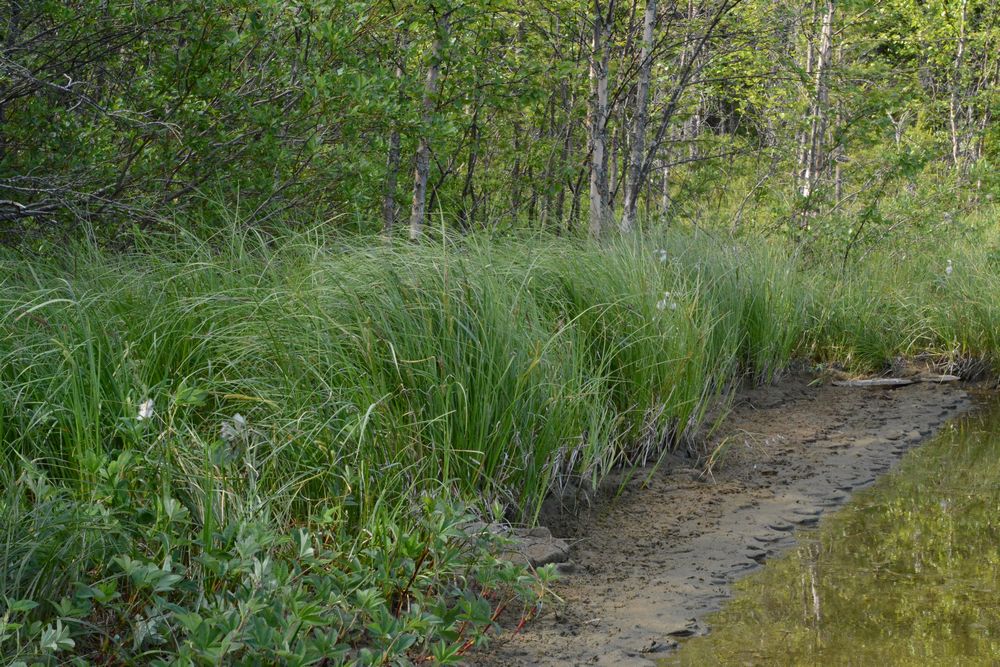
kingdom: Plantae
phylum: Tracheophyta
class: Liliopsida
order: Poales
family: Cyperaceae
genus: Carex
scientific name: Carex rostrata
